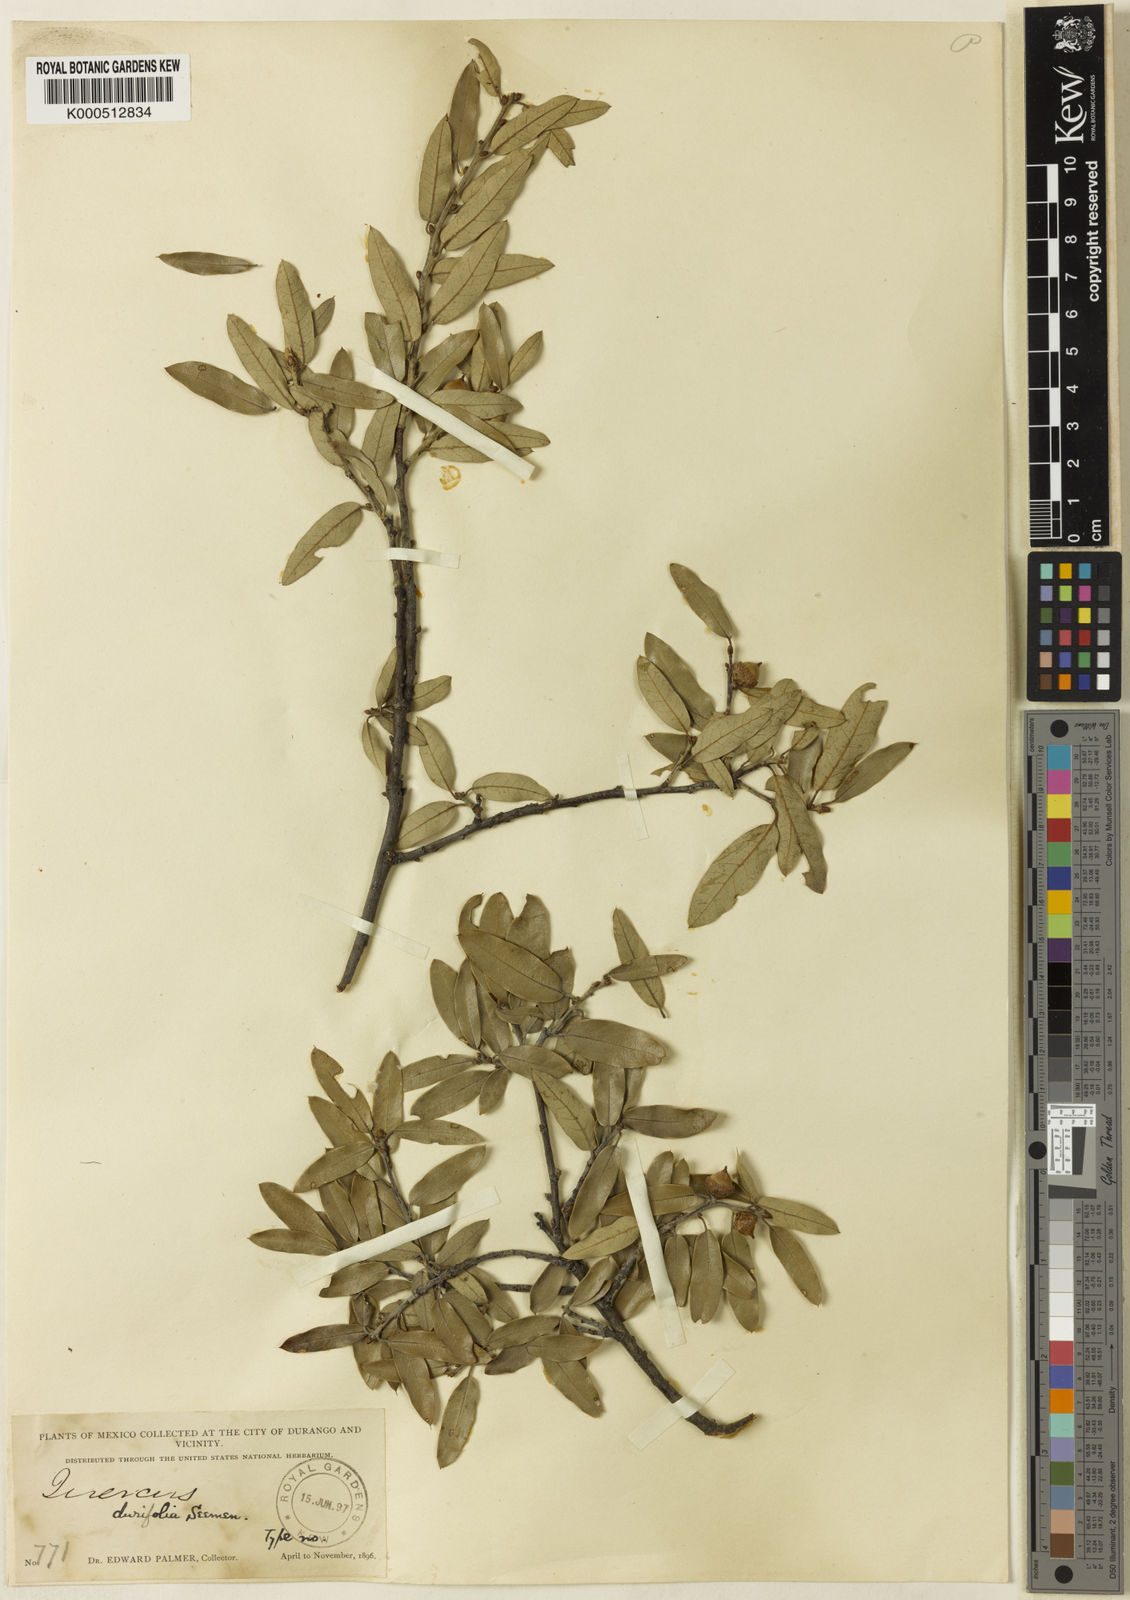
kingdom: Plantae
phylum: Tracheophyta
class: Magnoliopsida
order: Fagales
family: Fagaceae
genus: Quercus
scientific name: Quercus
